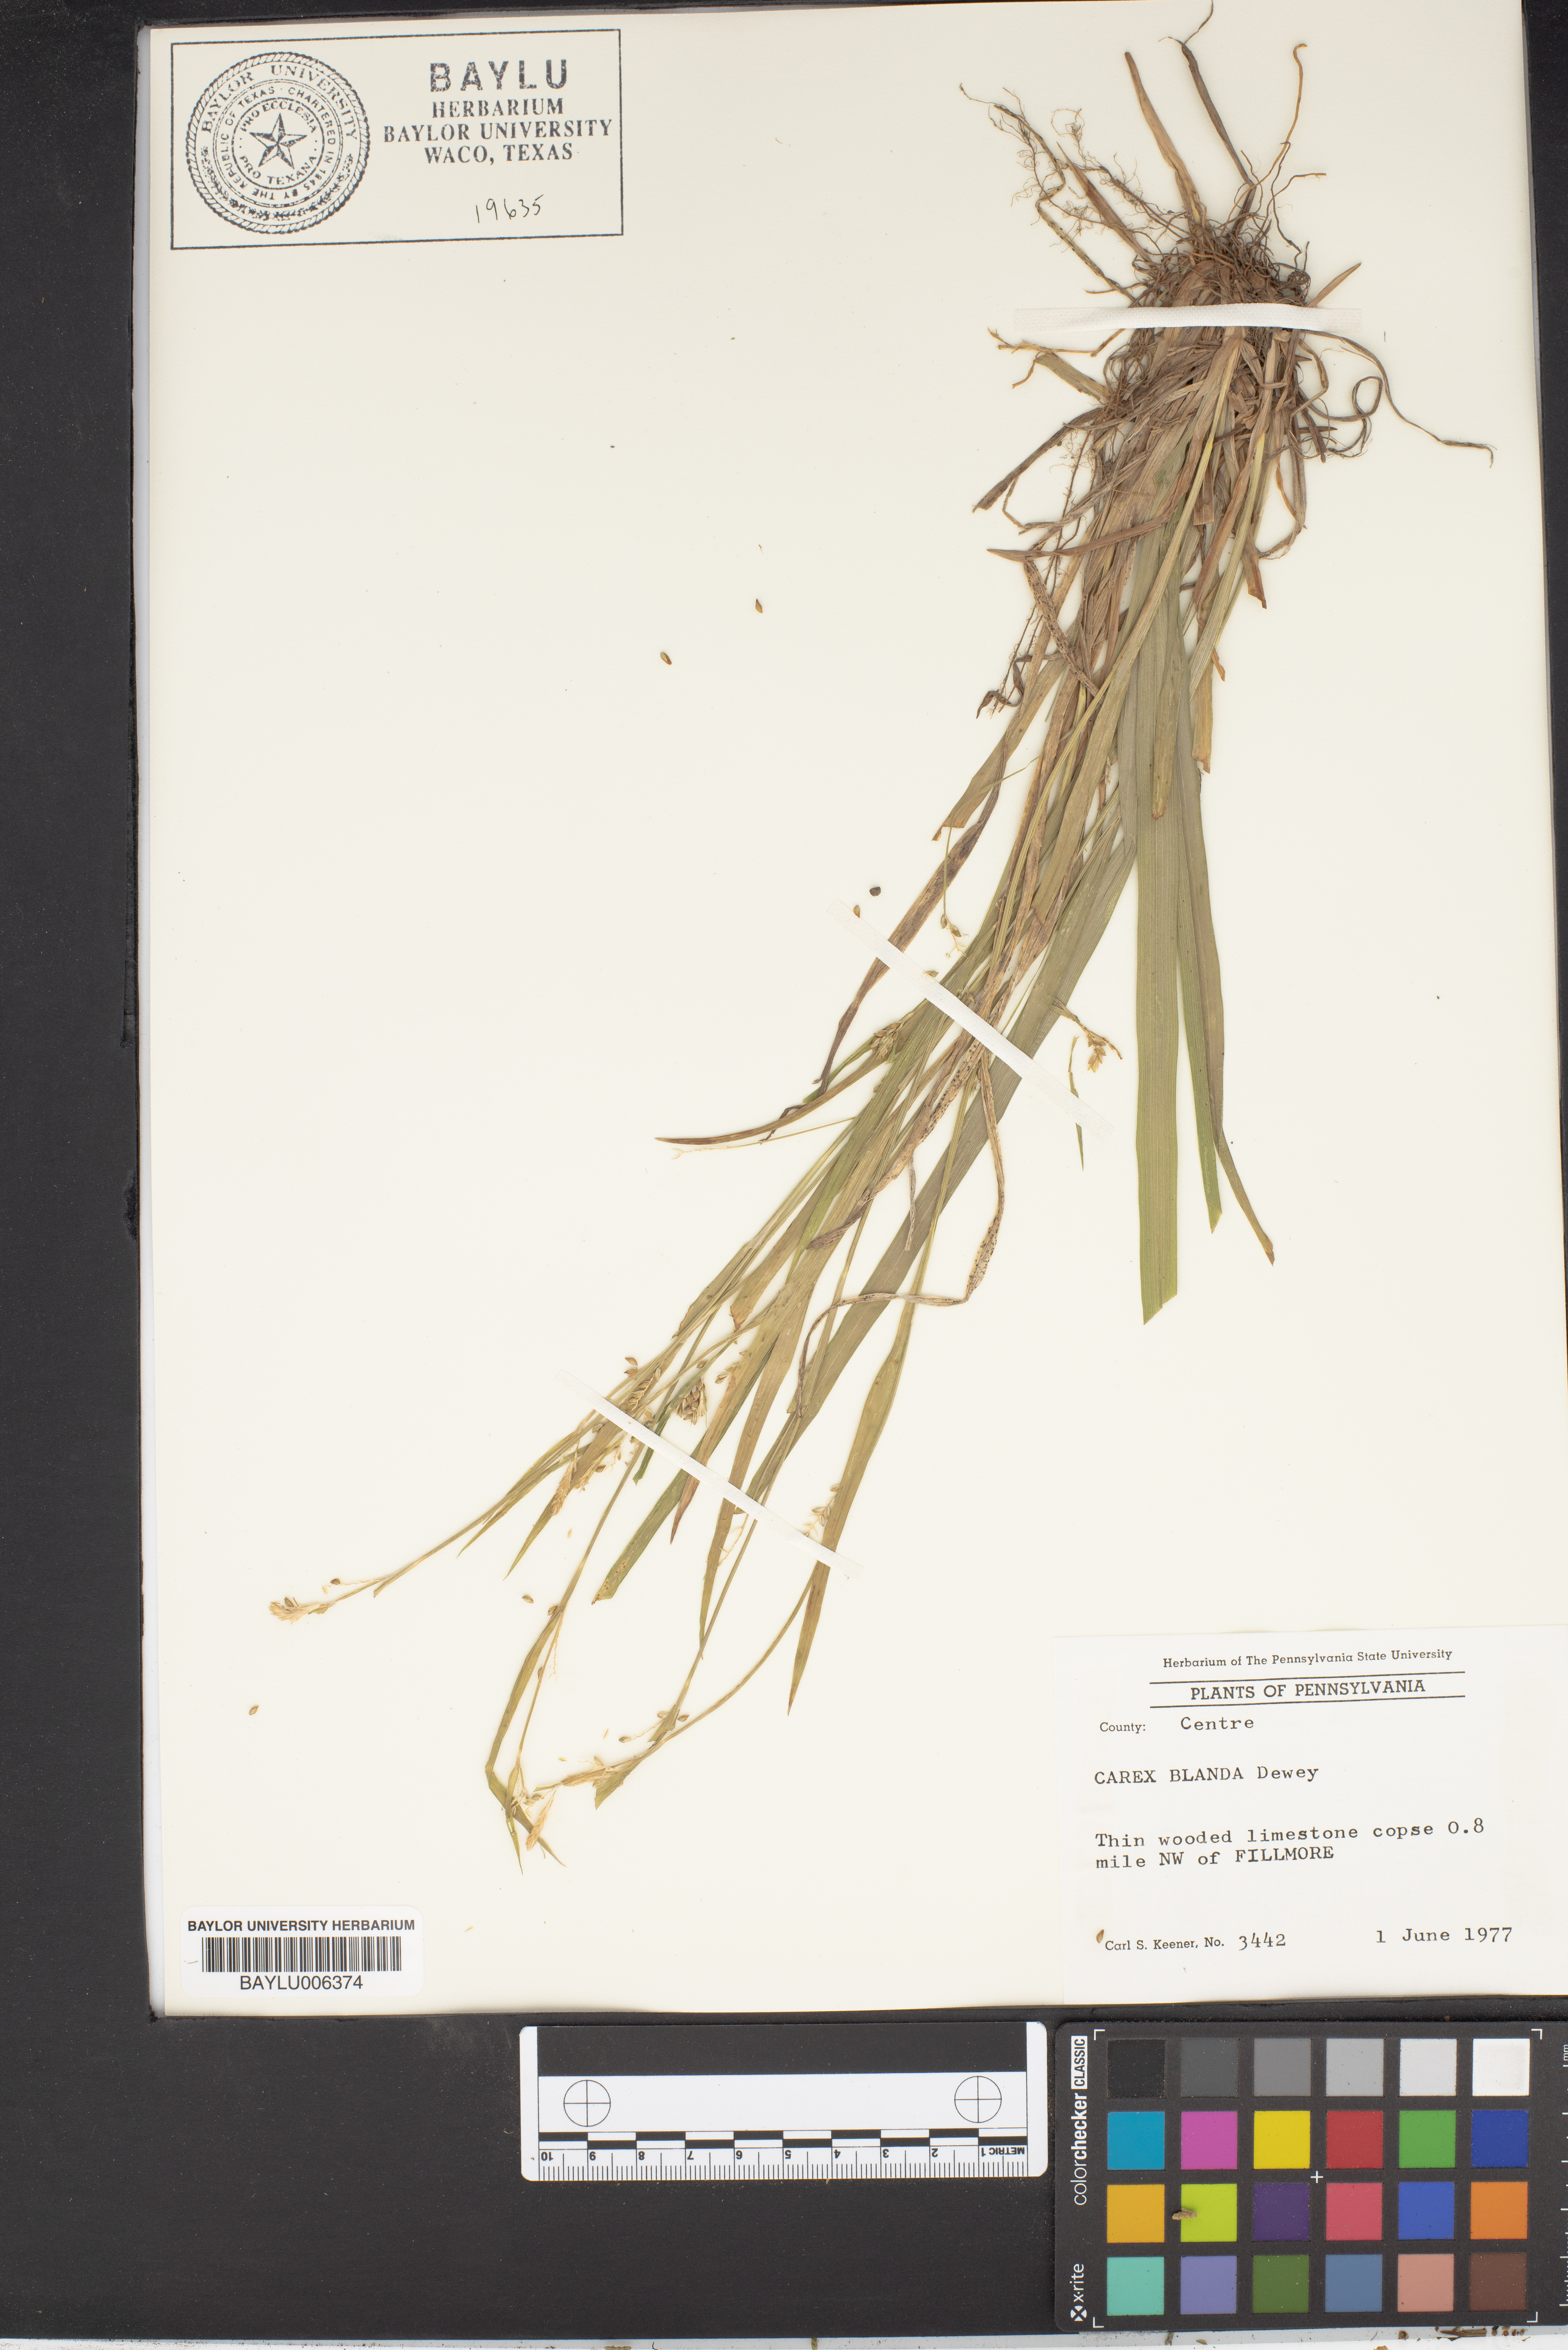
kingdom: Plantae
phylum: Tracheophyta
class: Liliopsida
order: Poales
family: Cyperaceae
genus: Carex
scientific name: Carex blanda
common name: Bland sedge
